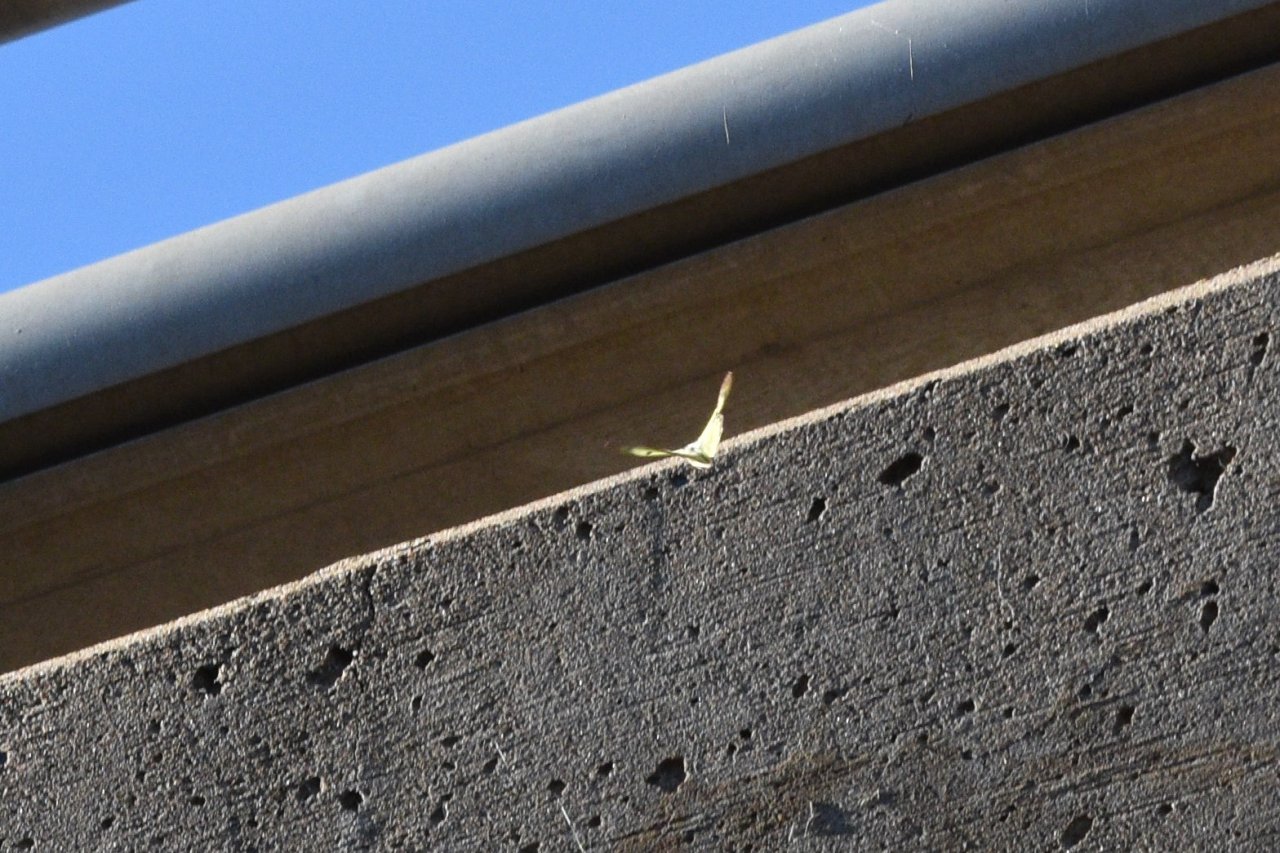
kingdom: Animalia
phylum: Arthropoda
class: Insecta
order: Lepidoptera
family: Pieridae
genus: Colias
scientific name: Colias philodice
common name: Clouded Sulphur
